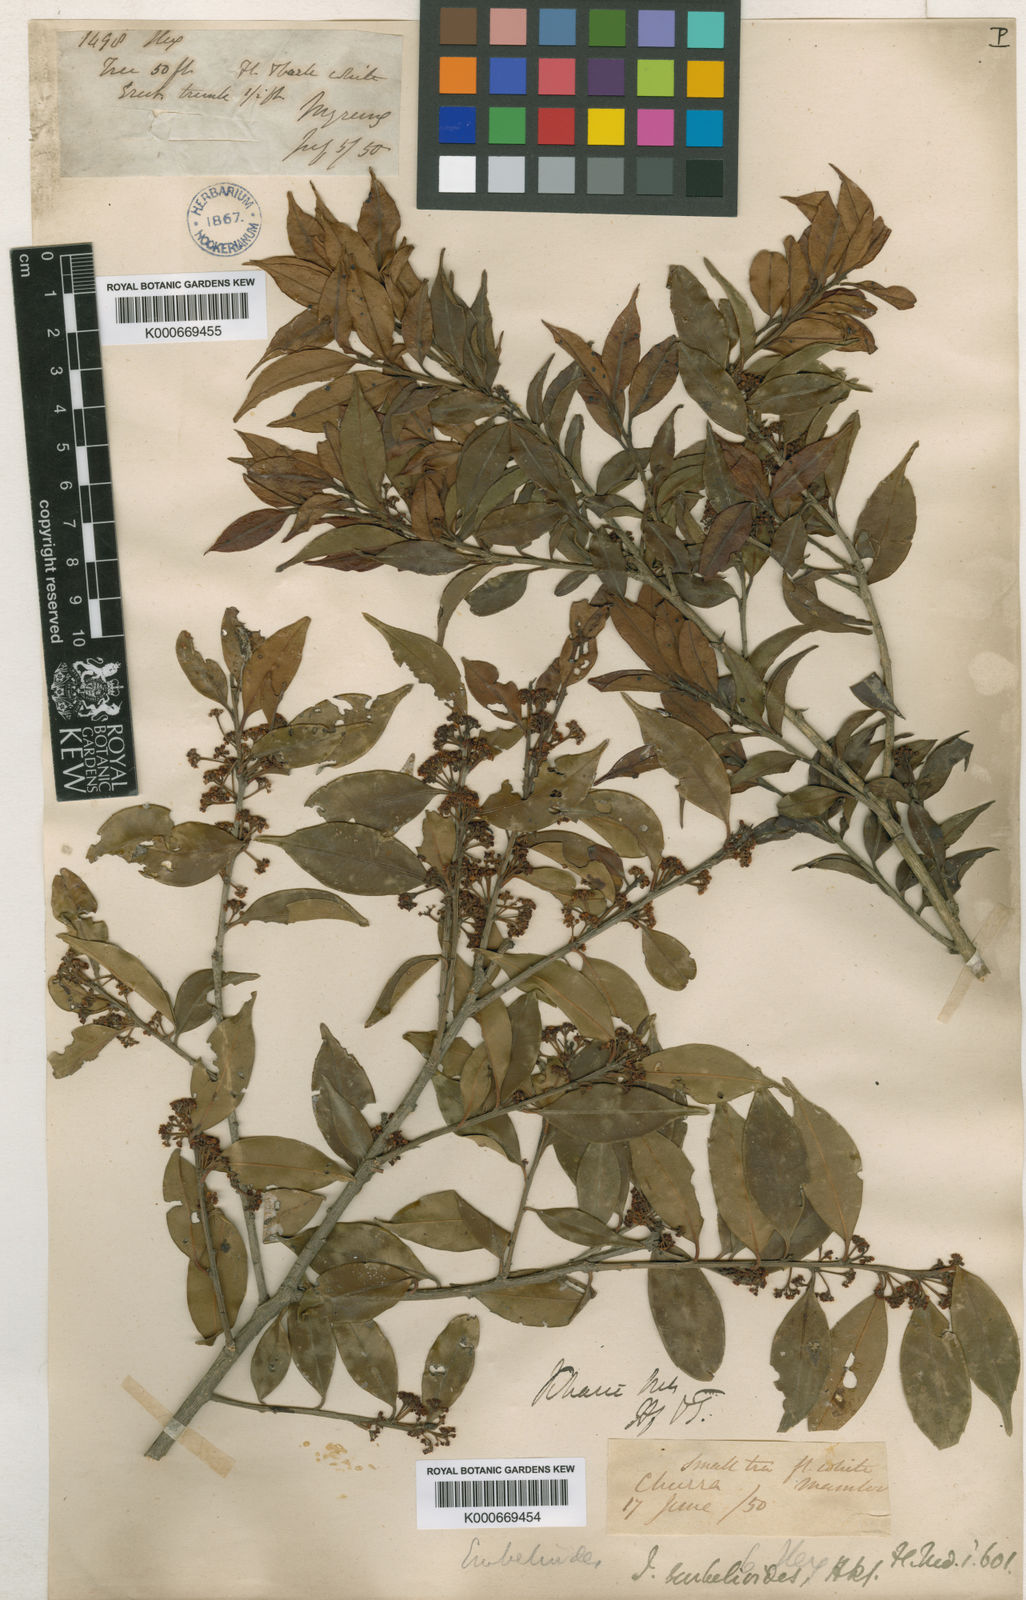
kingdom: Plantae
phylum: Tracheophyta
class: Magnoliopsida
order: Aquifoliales
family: Aquifoliaceae
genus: Ilex
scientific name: Ilex embelioides
